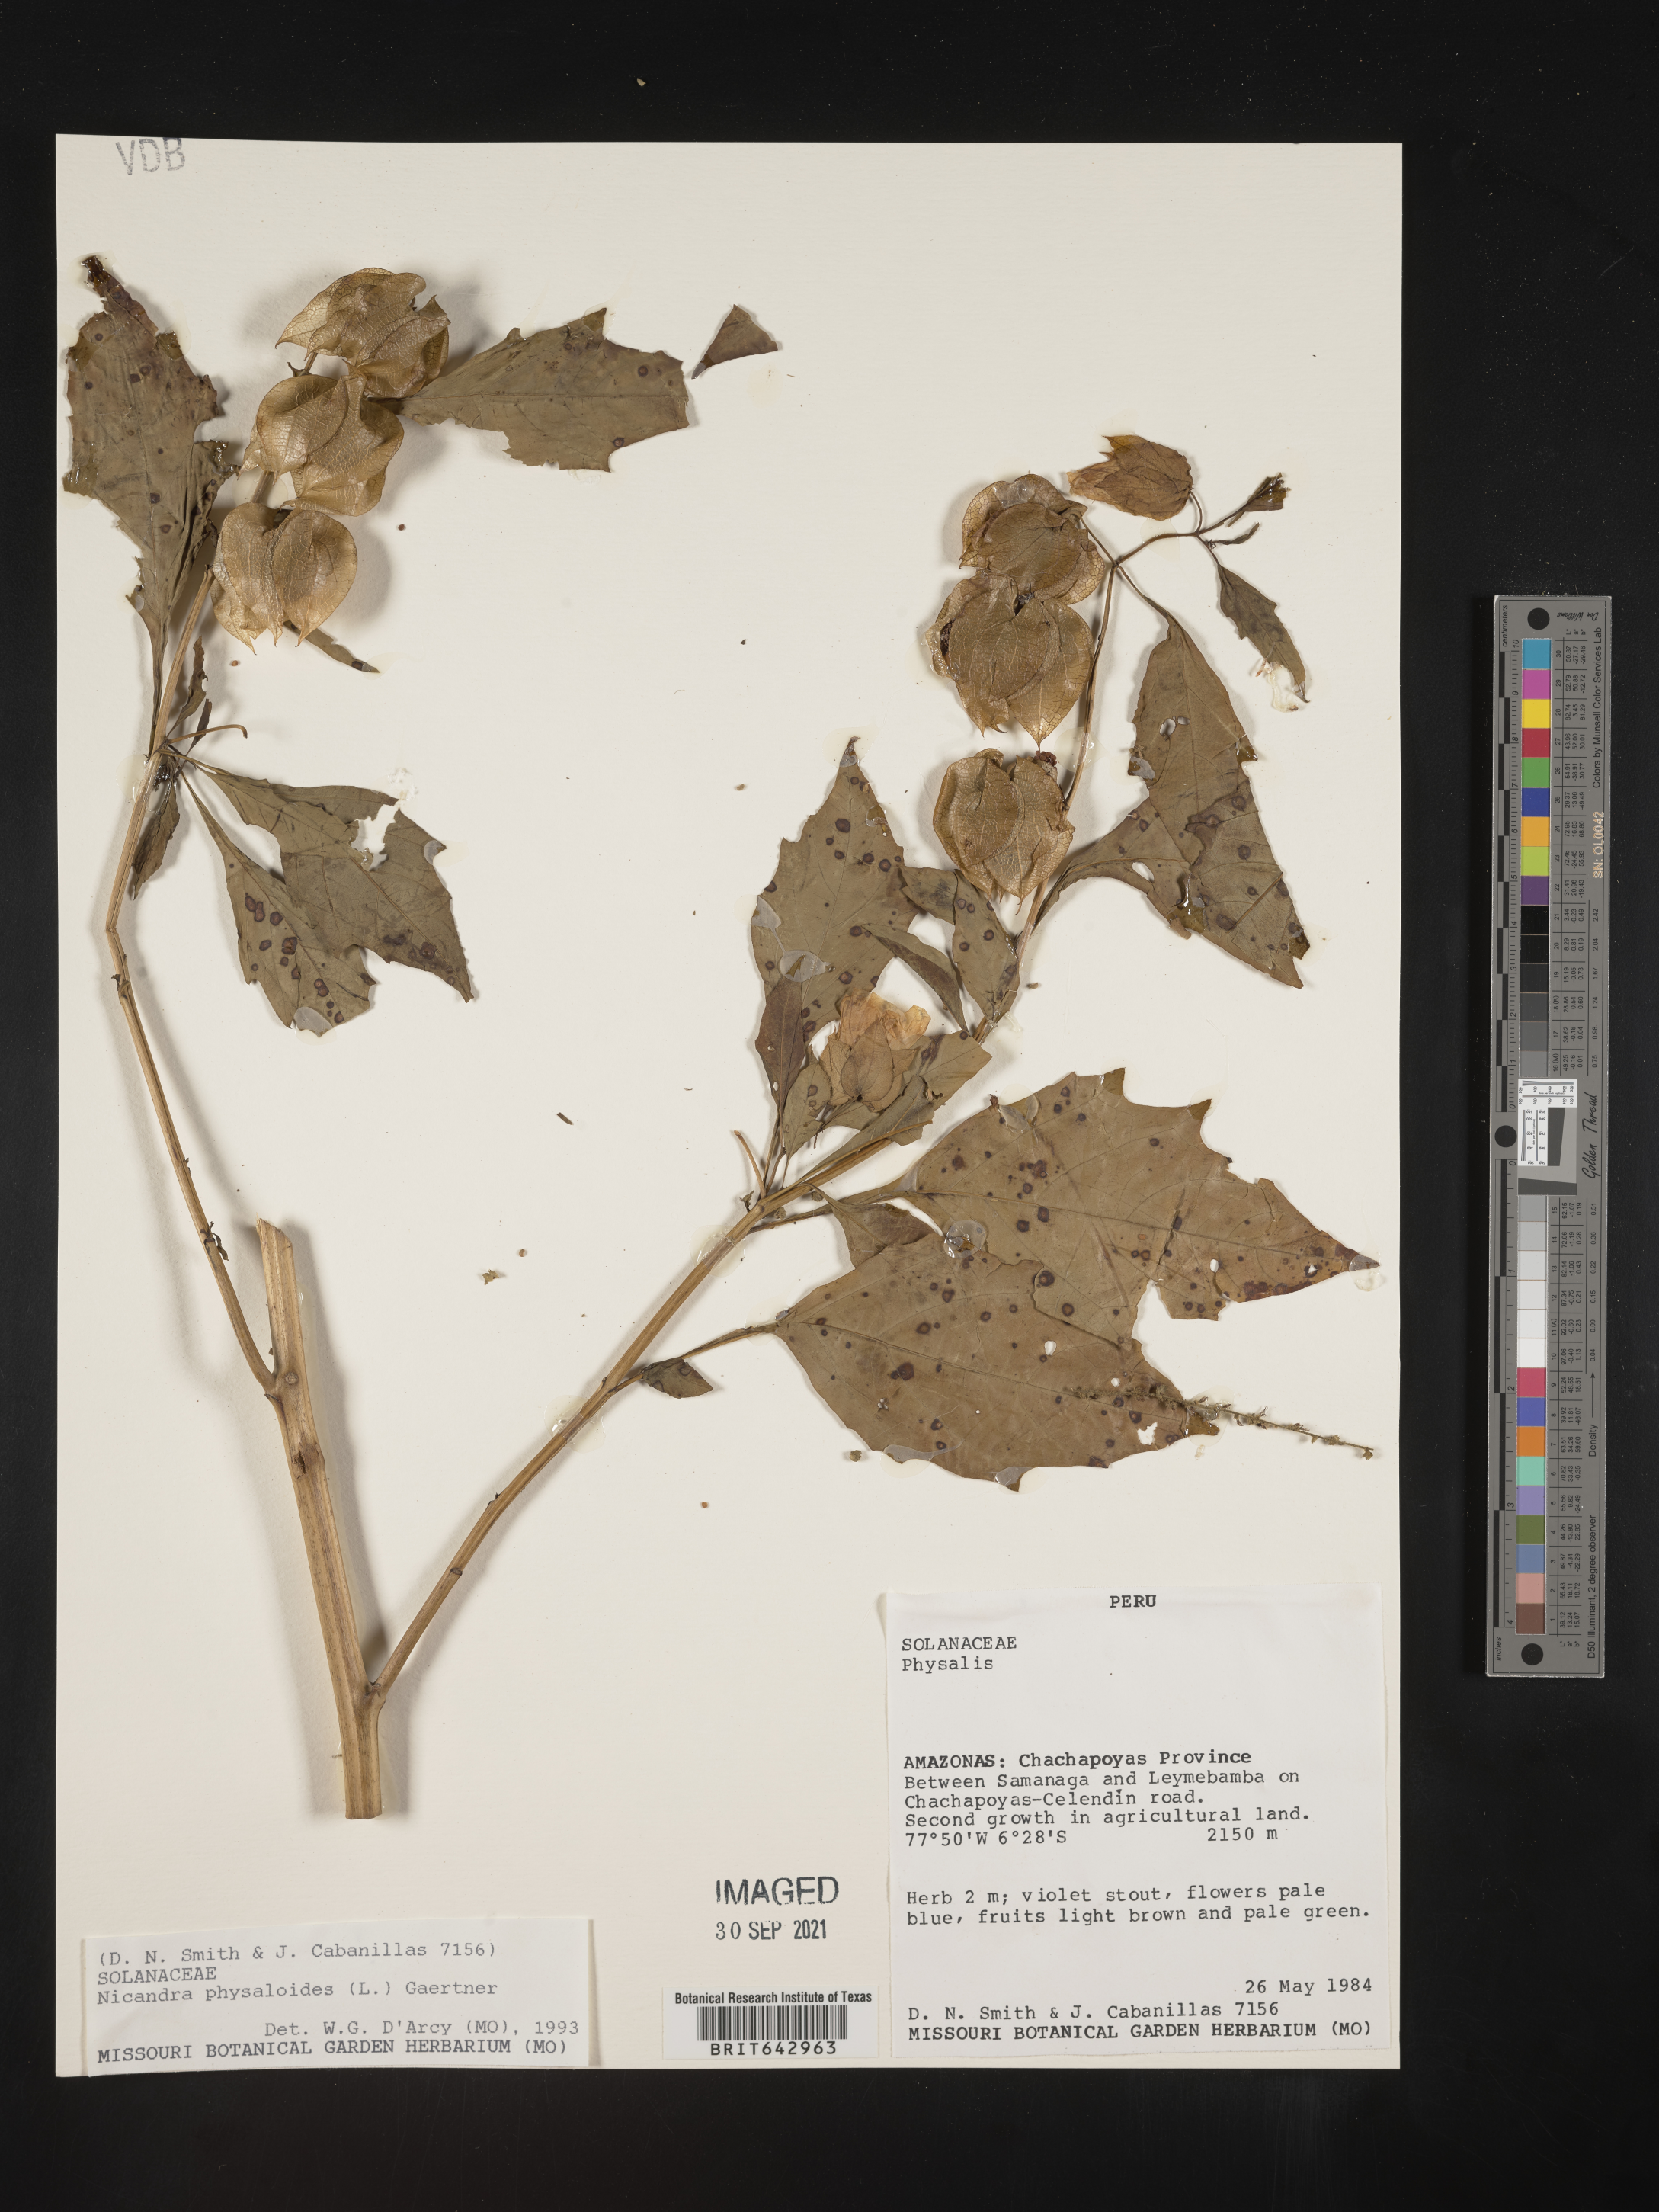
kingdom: Plantae
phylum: Tracheophyta
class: Magnoliopsida
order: Solanales
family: Solanaceae
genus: Nicandra
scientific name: Nicandra
